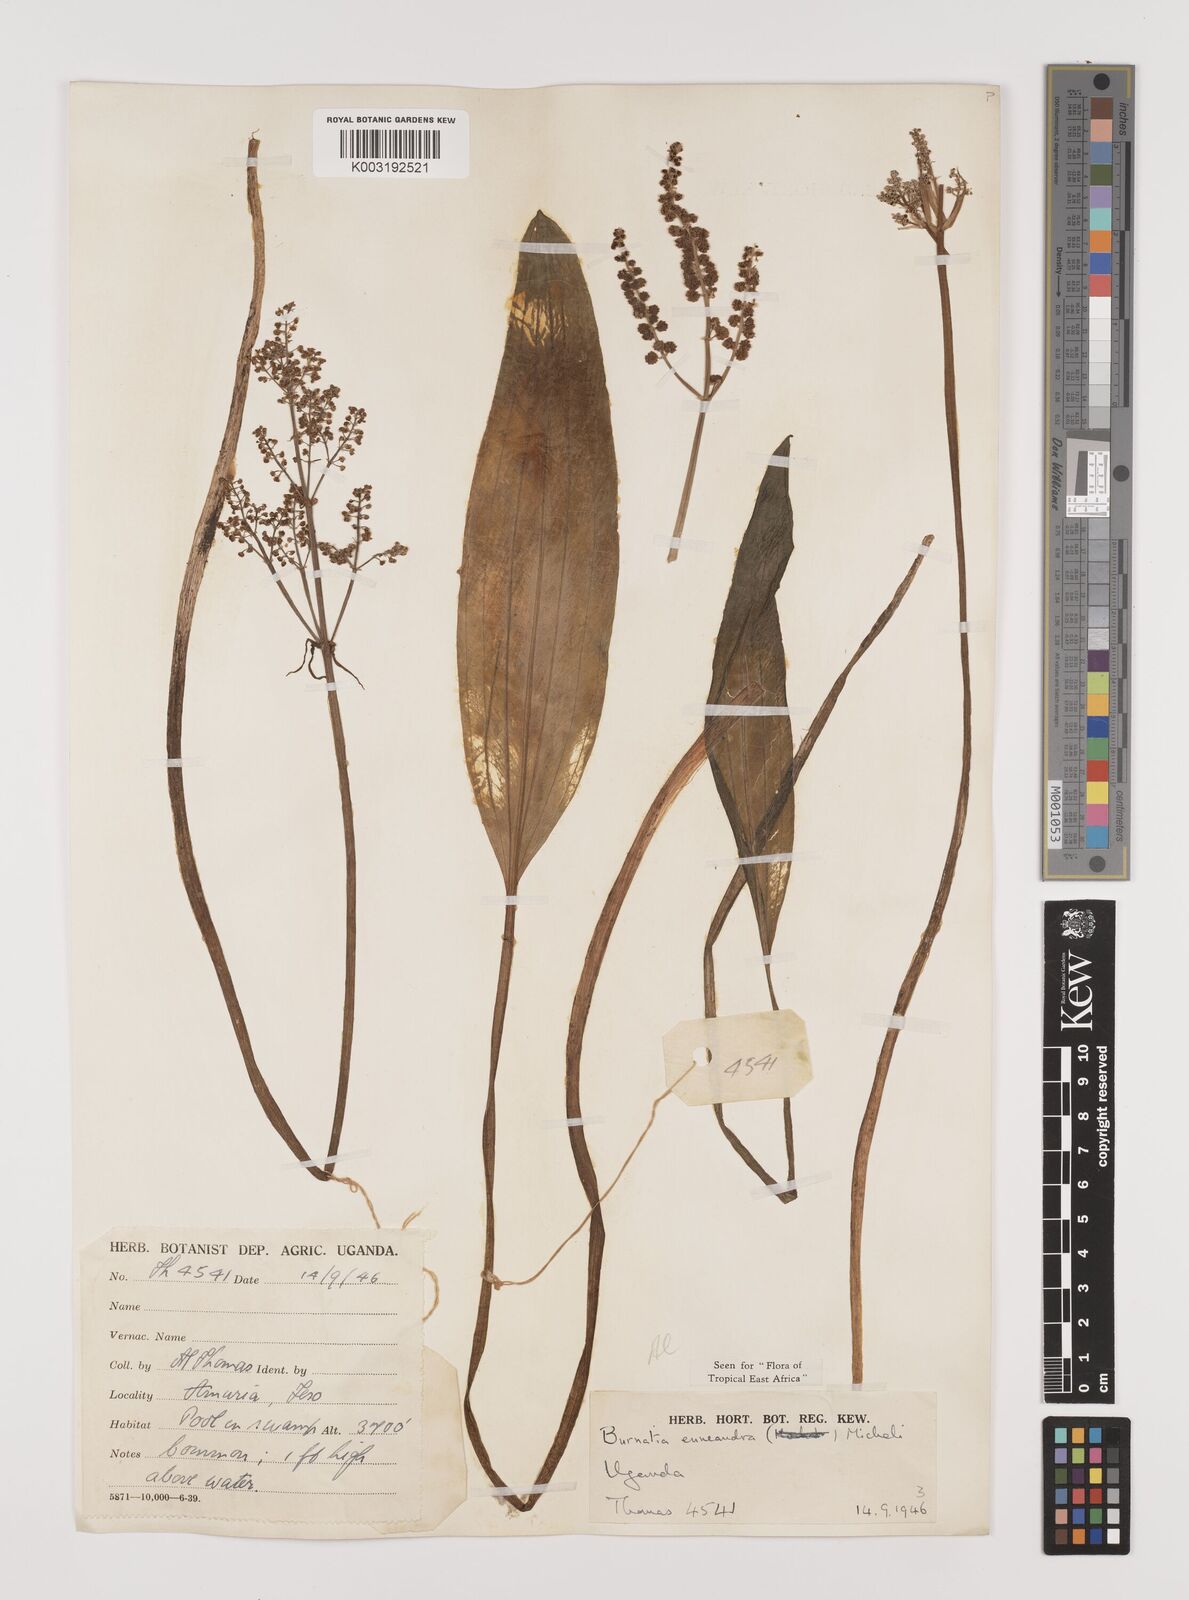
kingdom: Plantae
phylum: Tracheophyta
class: Liliopsida
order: Alismatales
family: Alismataceae
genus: Burnatia
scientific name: Burnatia enneandra
